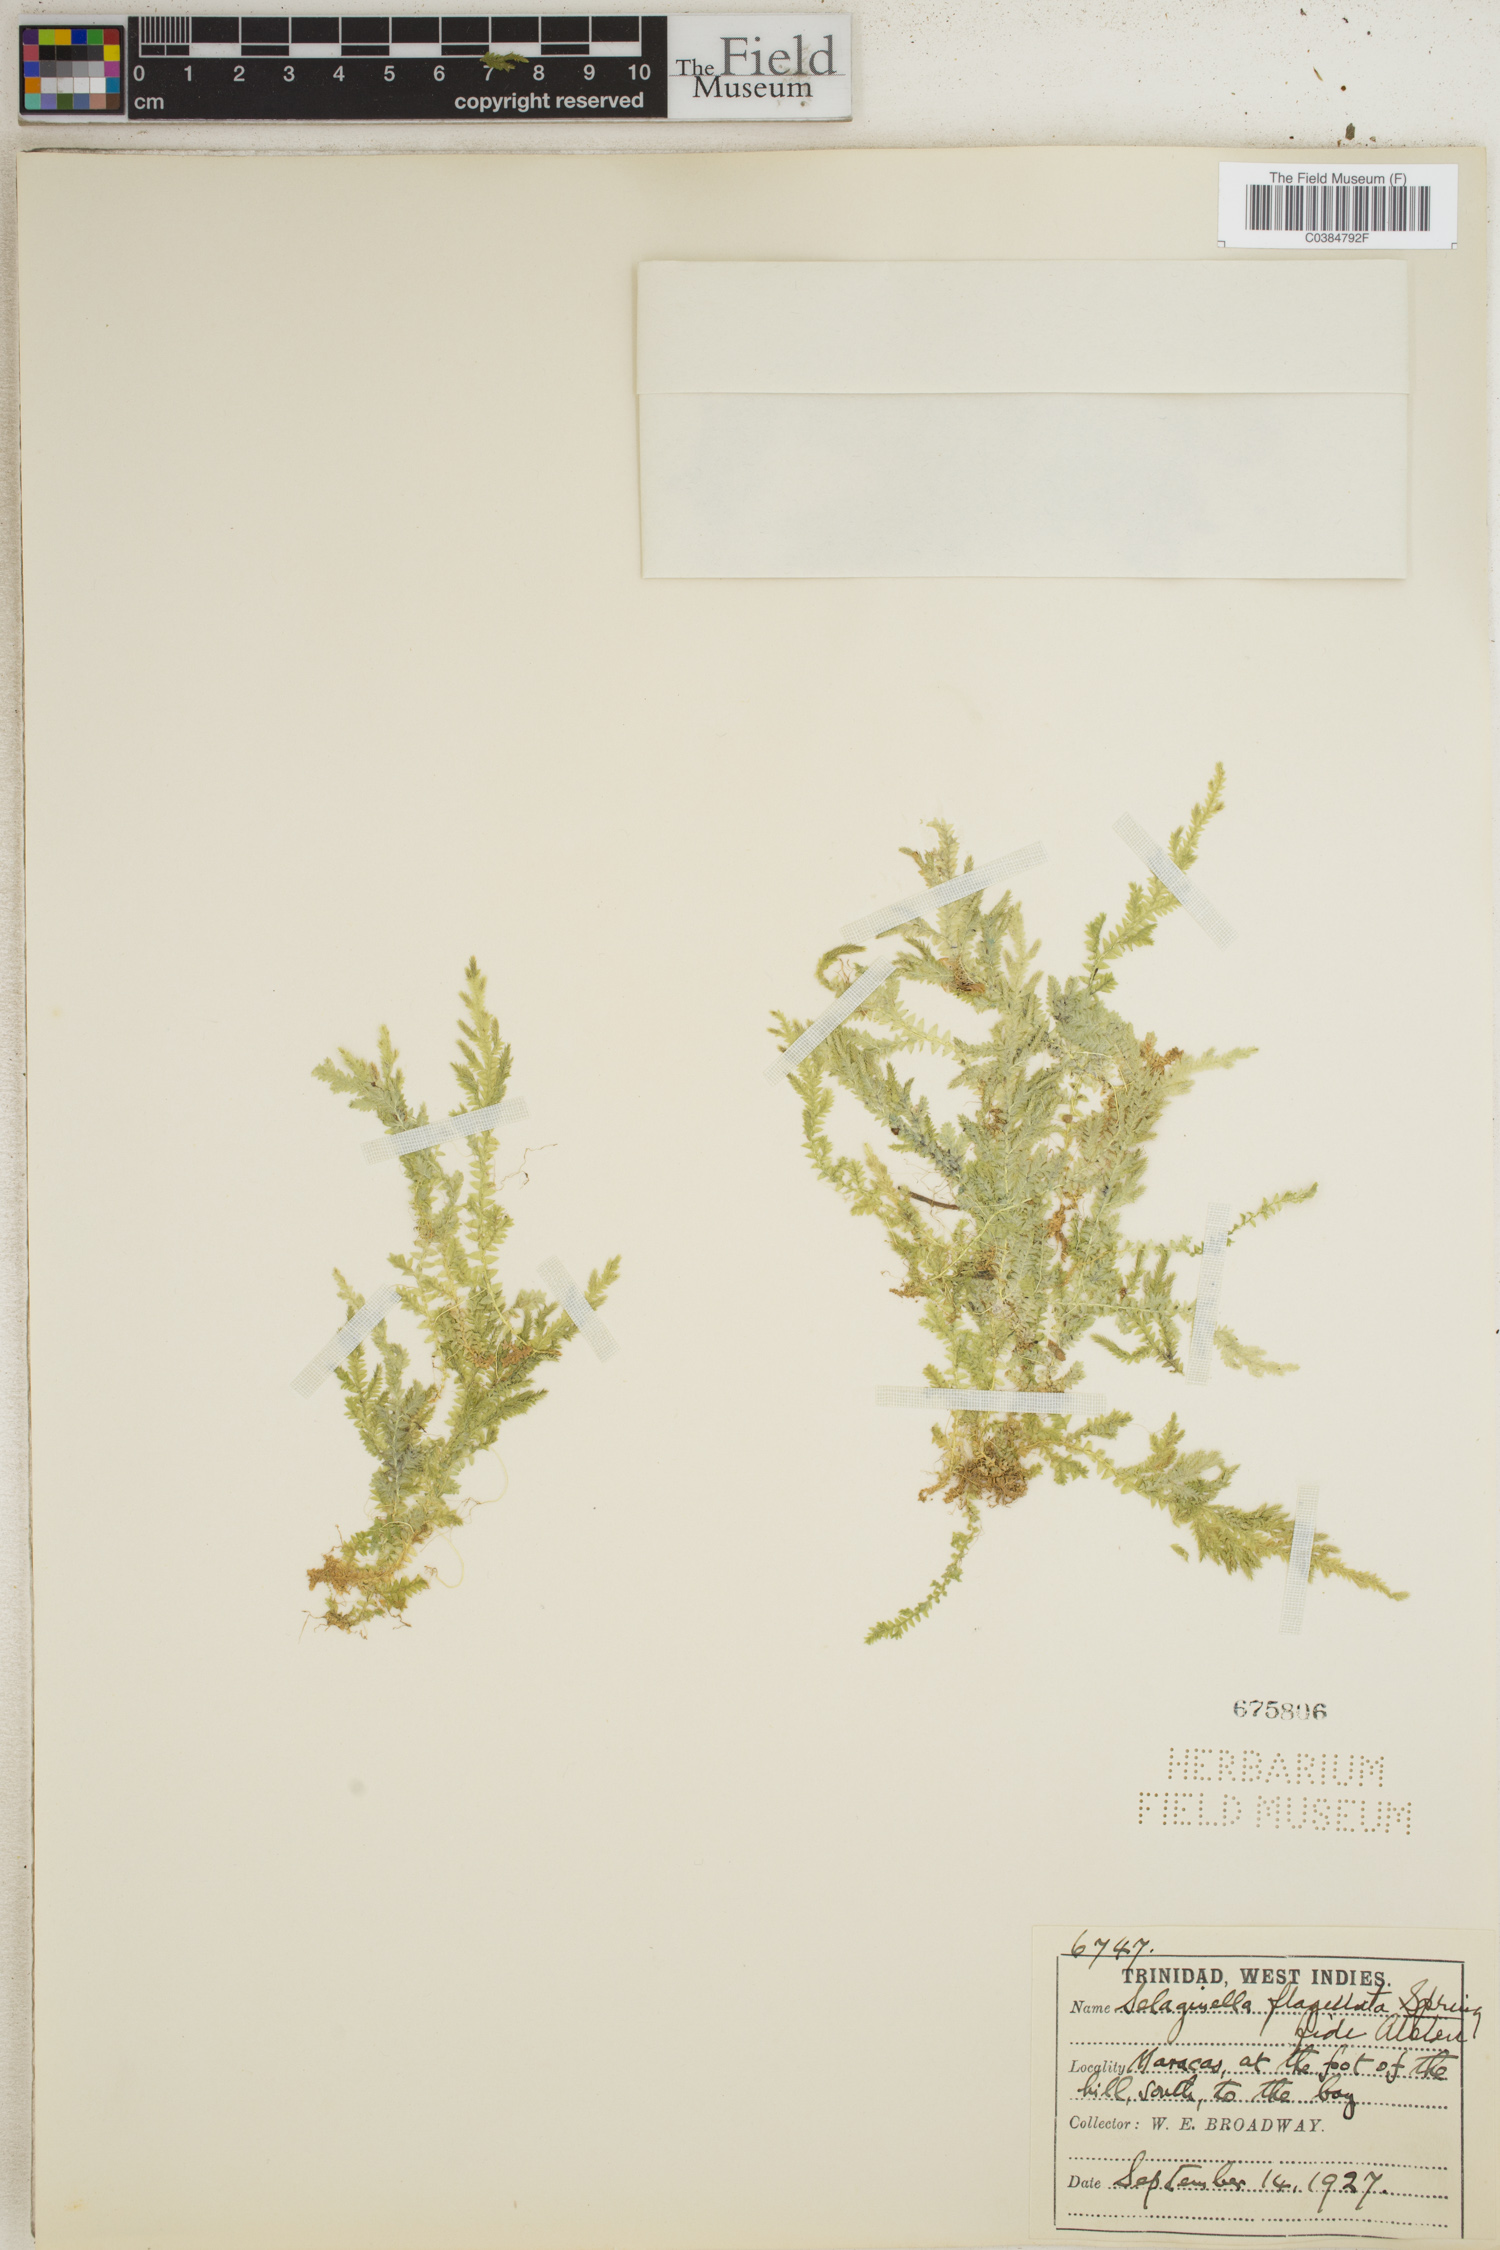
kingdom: Plantae
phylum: Tracheophyta
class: Lycopodiopsida
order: Selaginellales
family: Selaginellaceae
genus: Selaginella
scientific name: Selaginella flabellata
